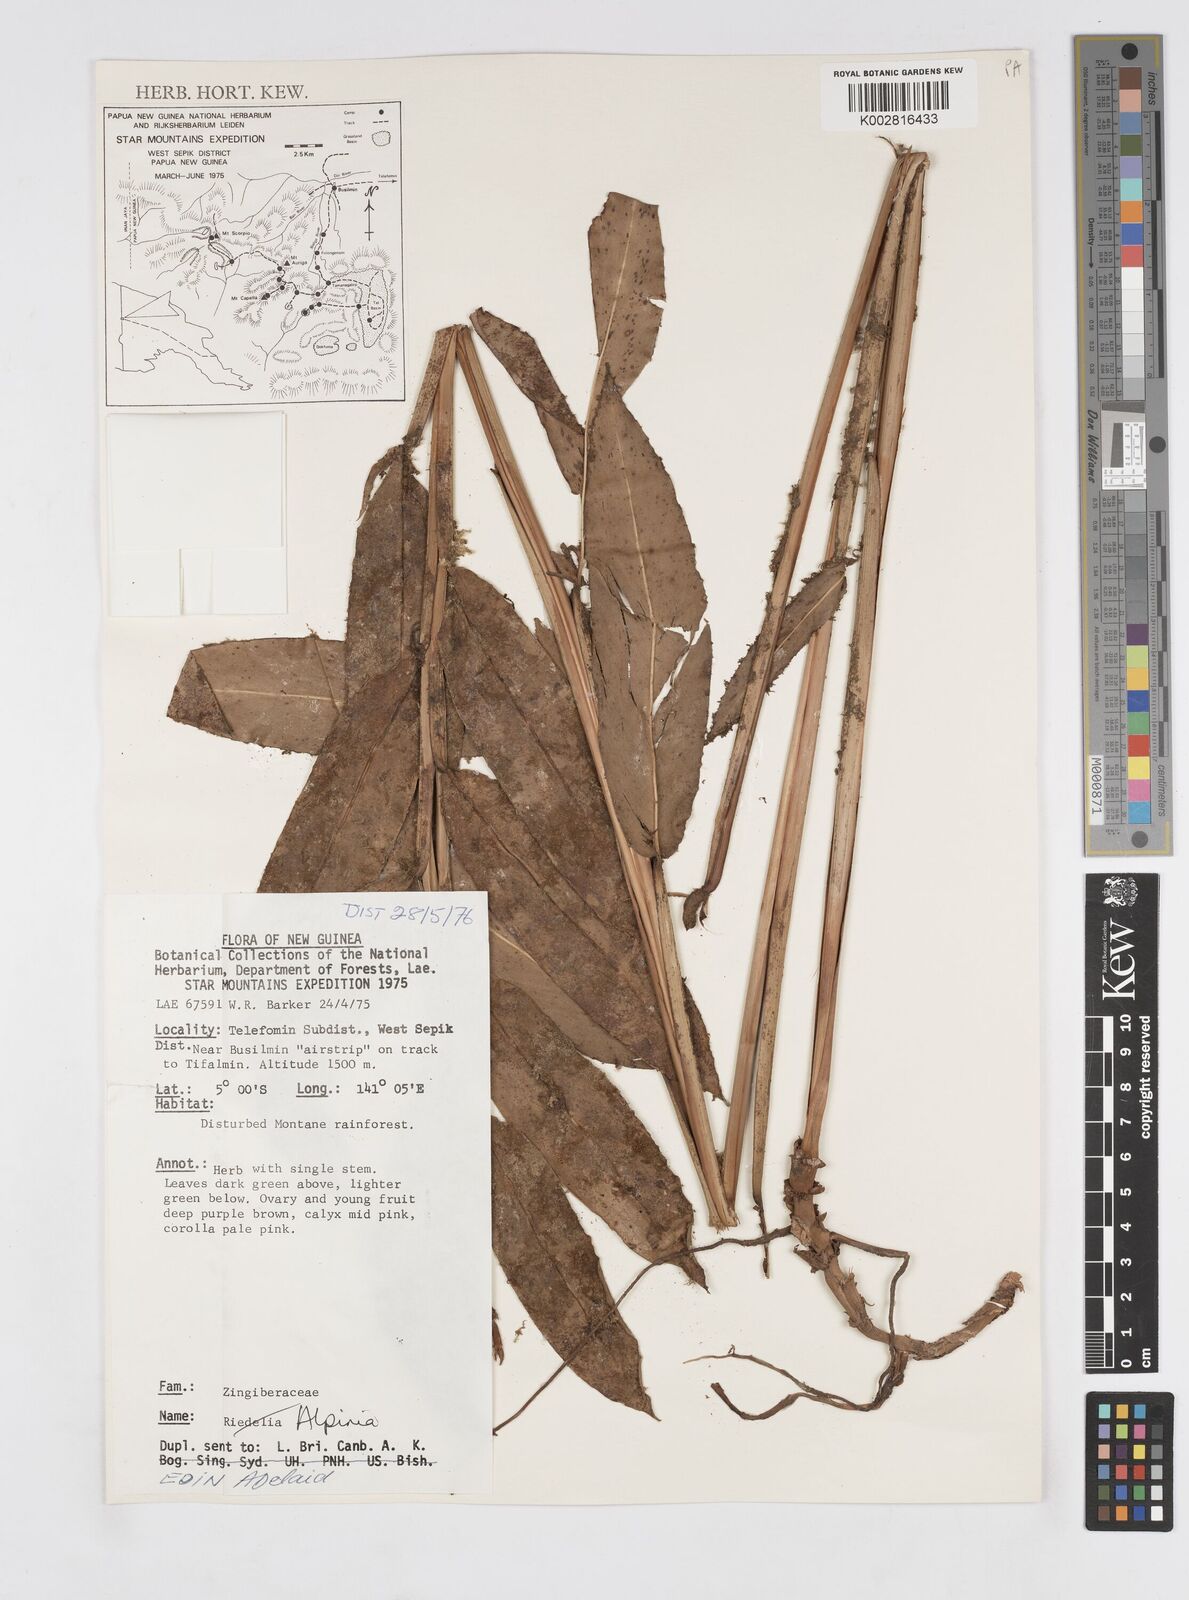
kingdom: Plantae
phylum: Tracheophyta
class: Liliopsida
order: Zingiberales
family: Zingiberaceae
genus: Alpinia
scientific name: Alpinia
